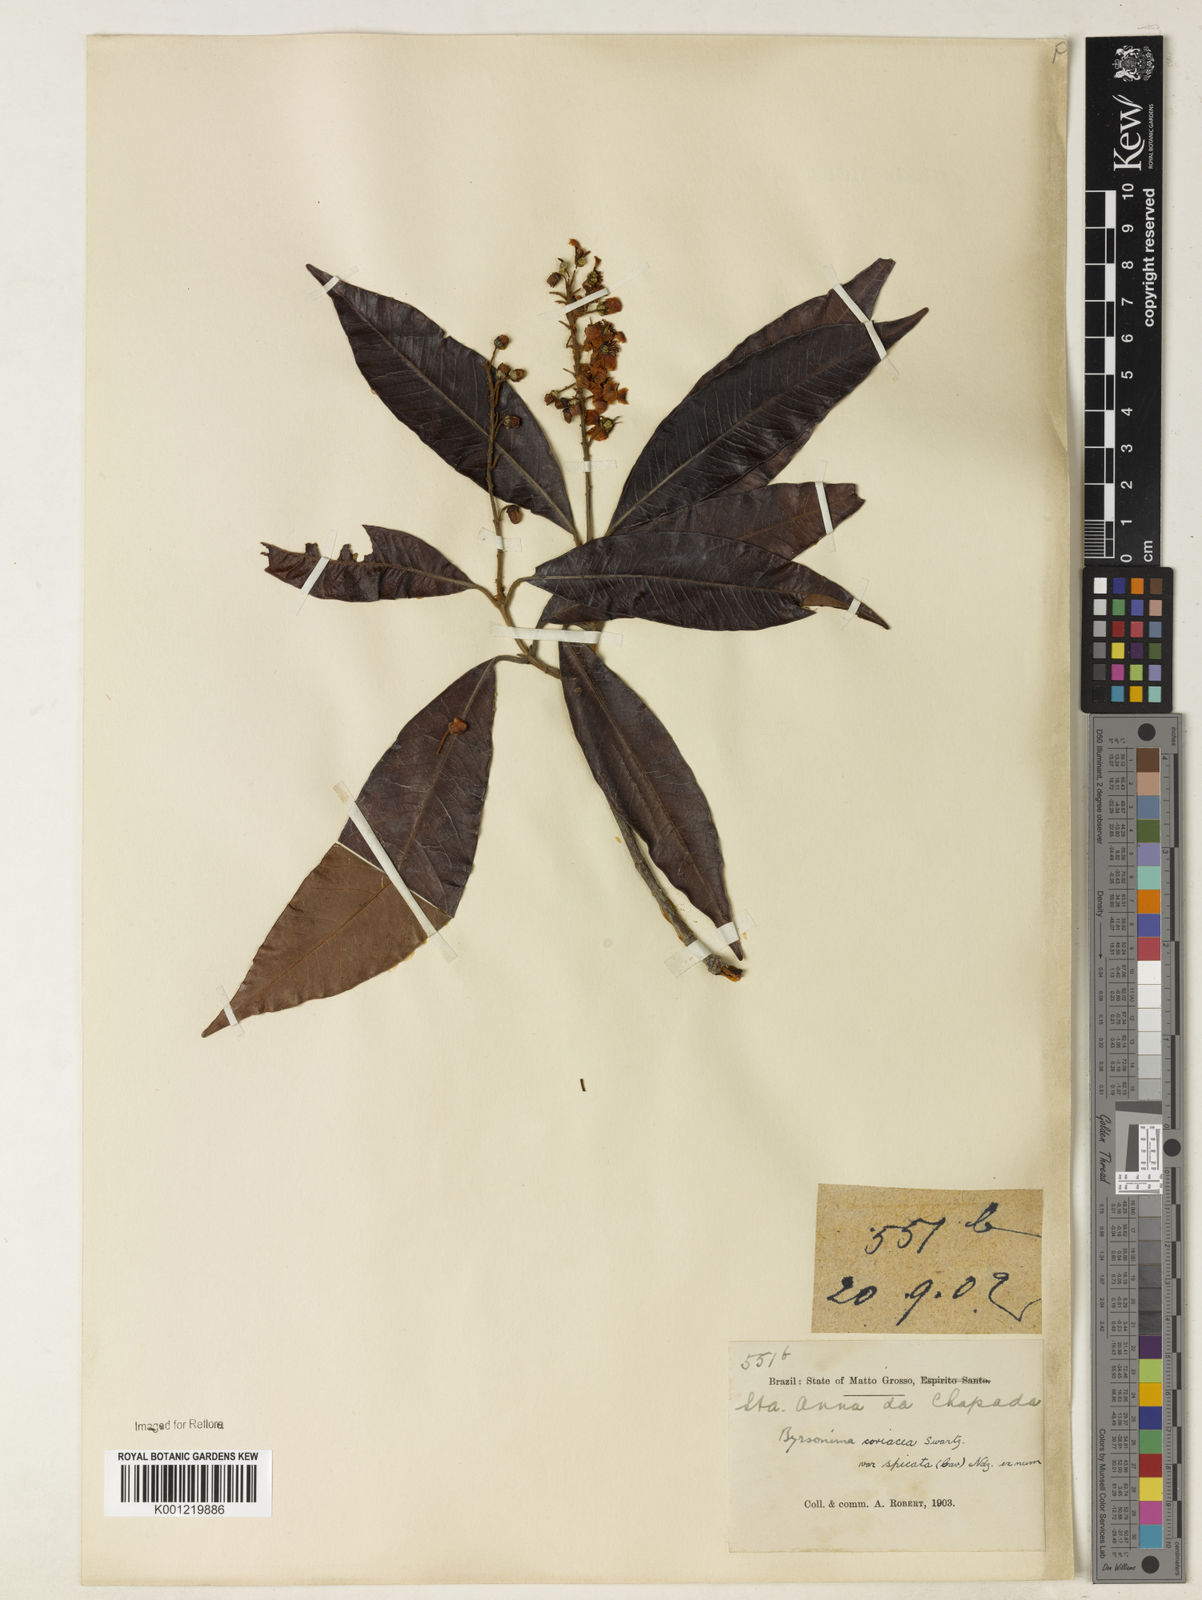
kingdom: Plantae
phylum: Tracheophyta
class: Magnoliopsida
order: Malpighiales
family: Malpighiaceae
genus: Byrsonima
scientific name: Byrsonima
